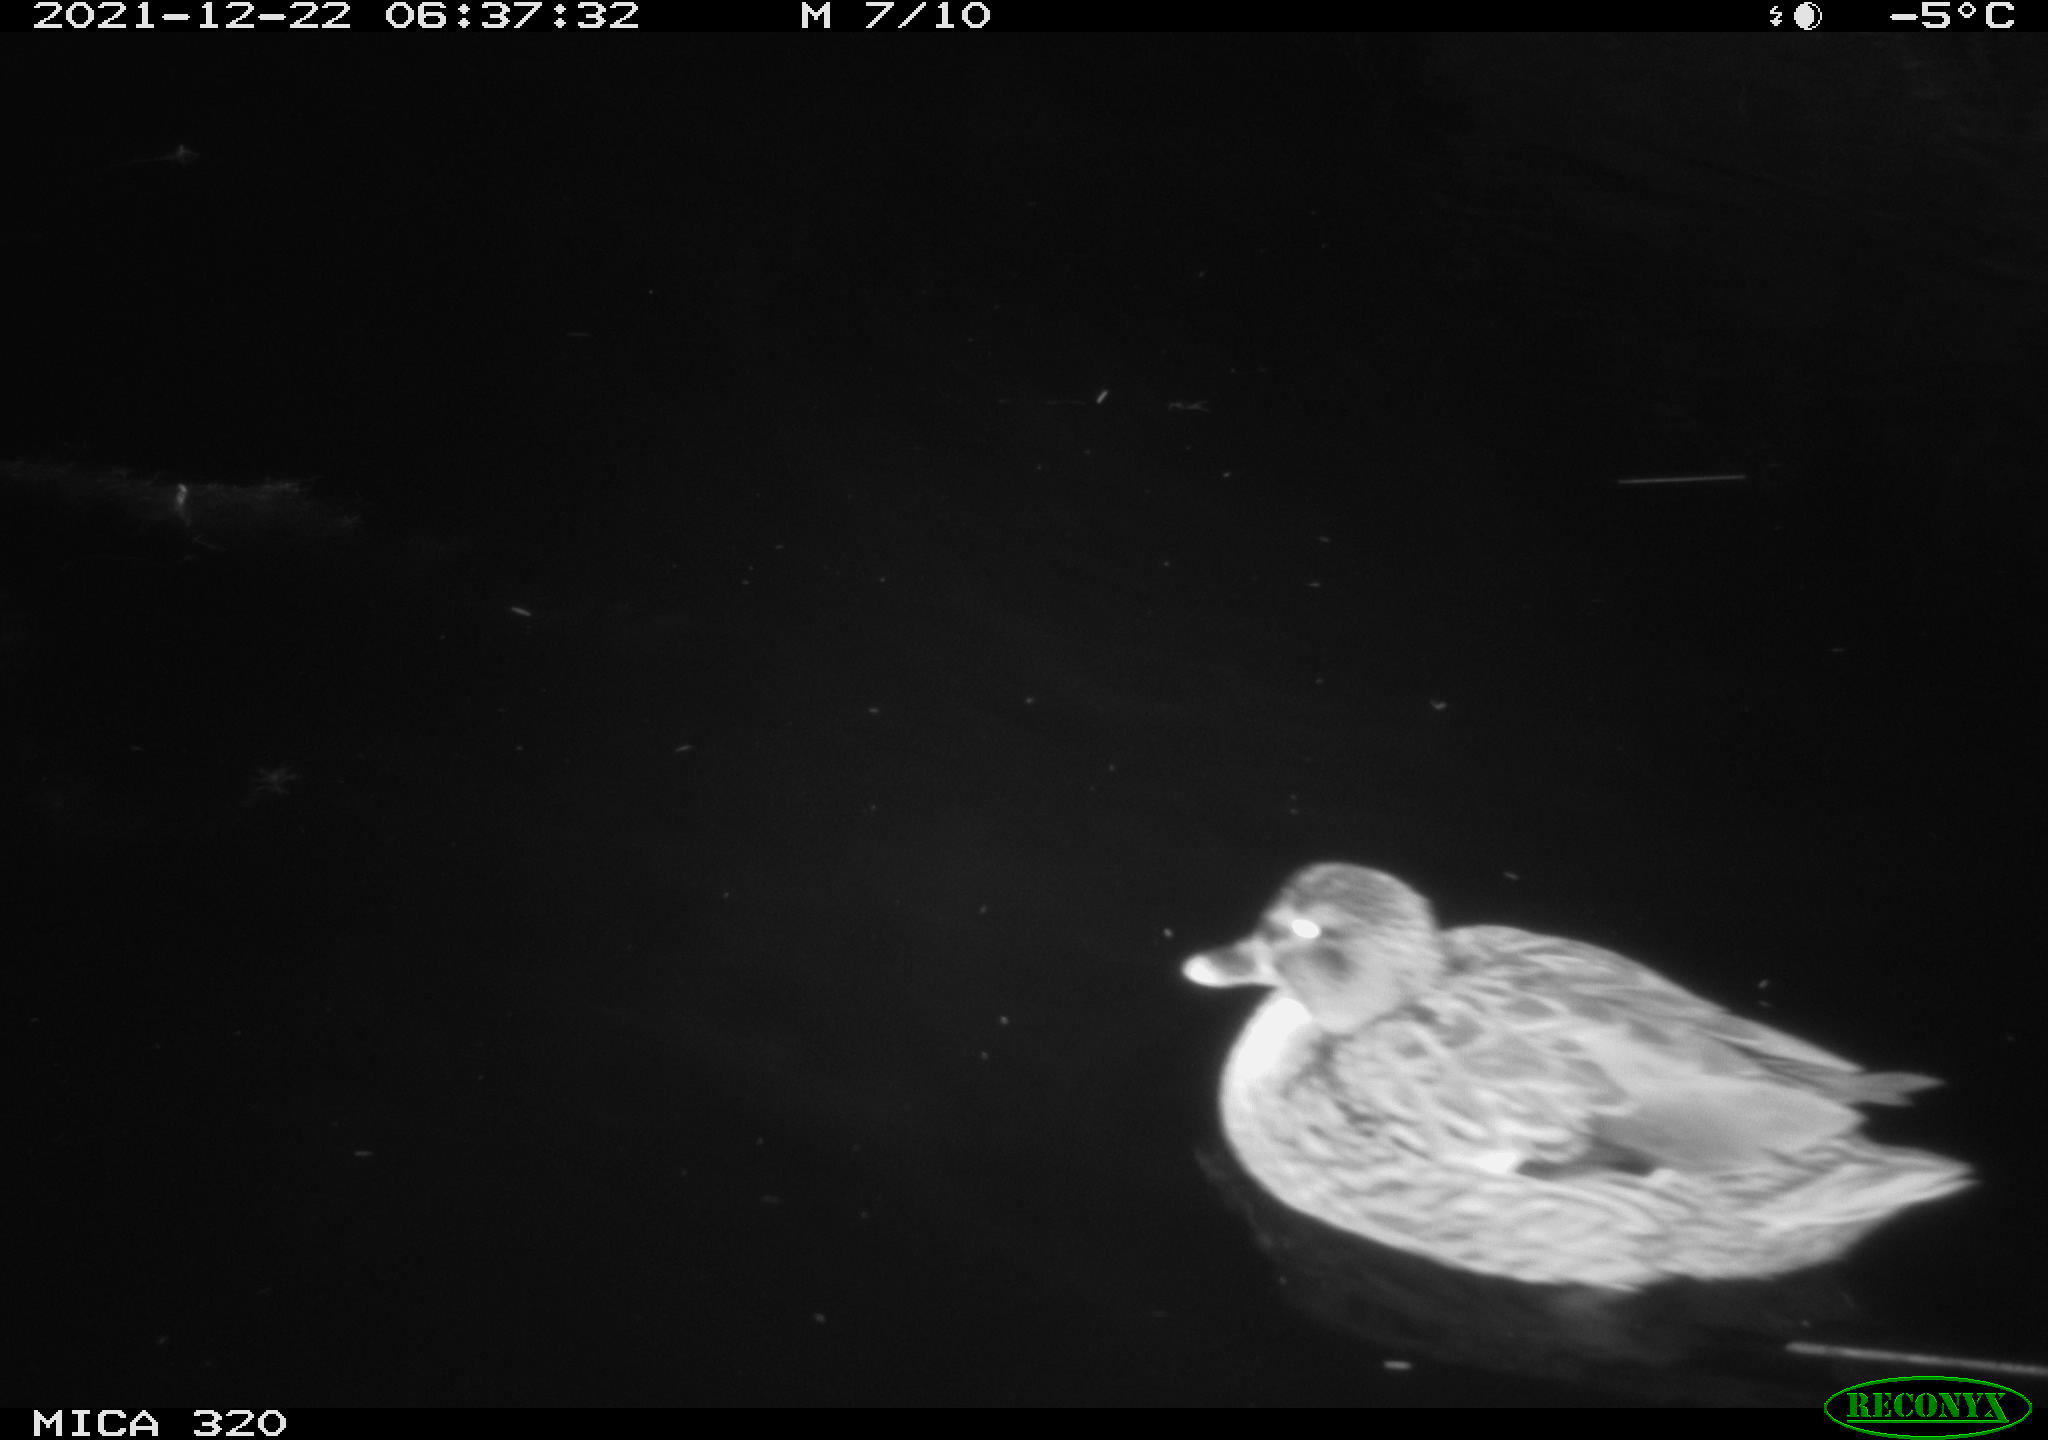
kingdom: Animalia
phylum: Chordata
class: Aves
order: Anseriformes
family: Anatidae
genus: Mareca
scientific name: Mareca strepera
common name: Gadwall
